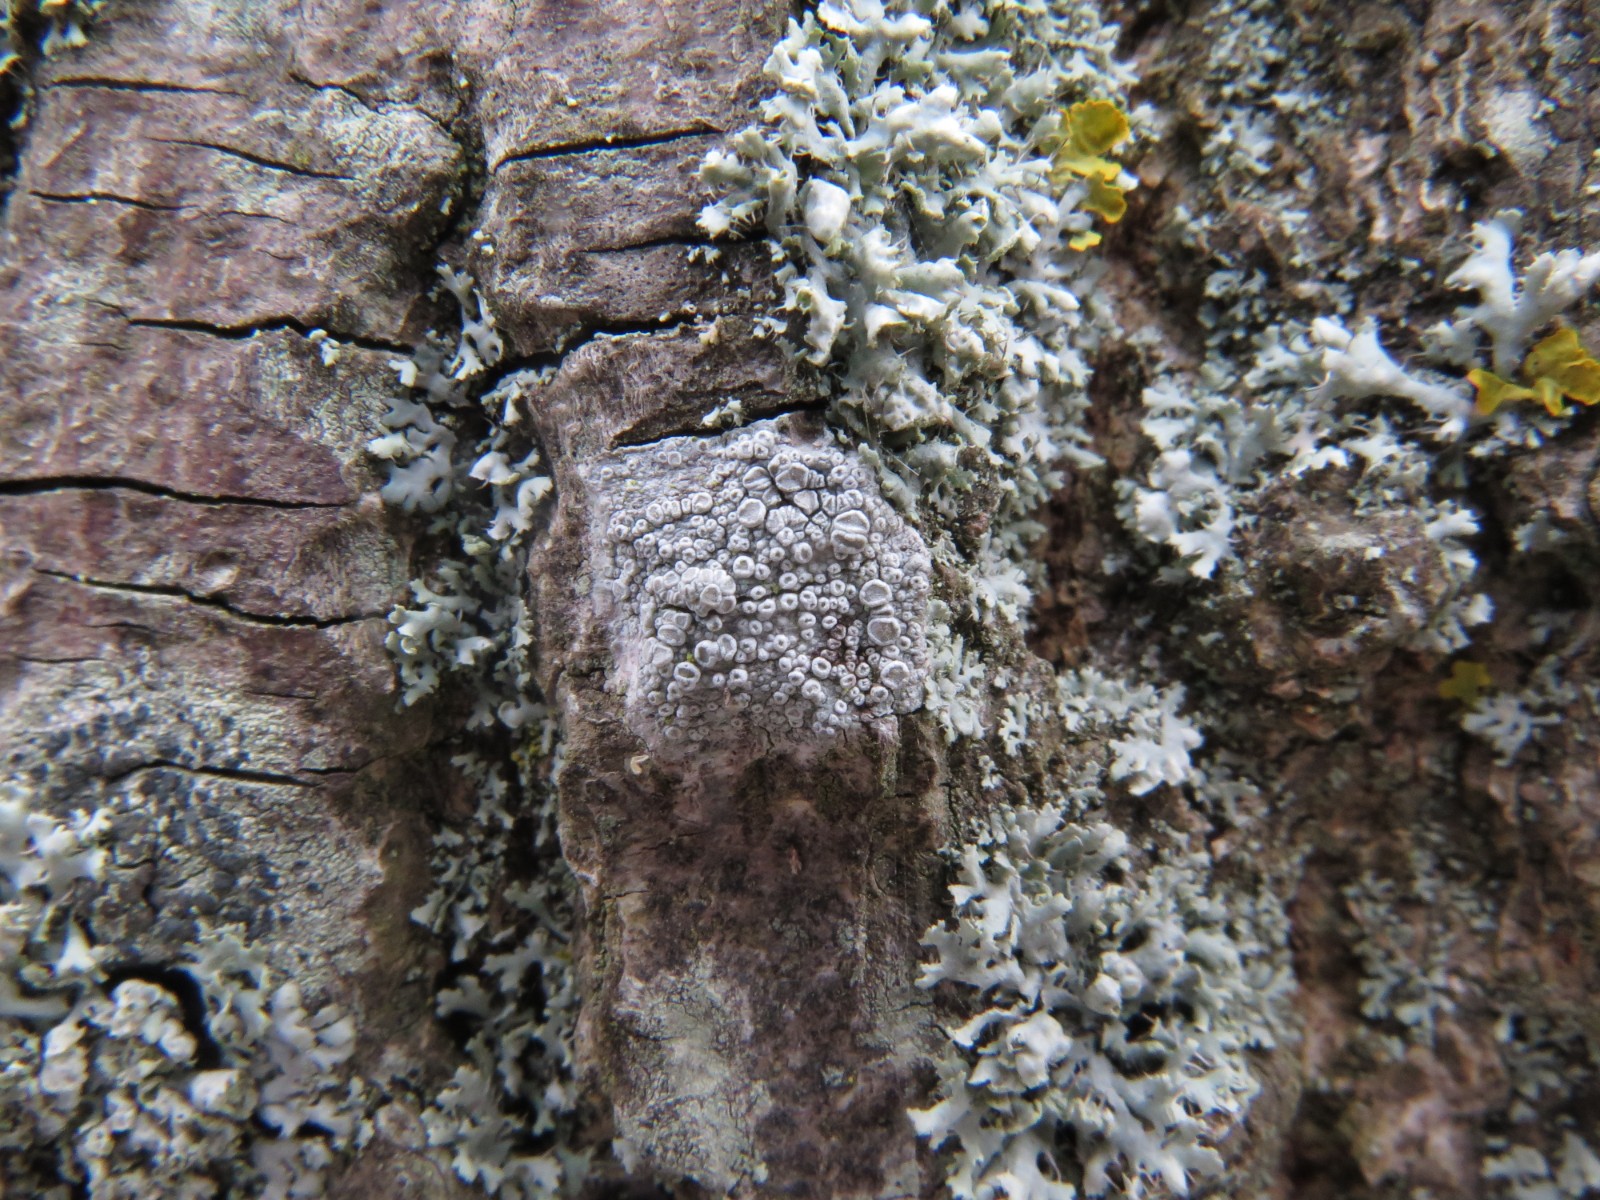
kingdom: Fungi
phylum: Ascomycota
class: Lecanoromycetes
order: Lecanorales
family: Lecanoraceae
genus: Glaucomaria
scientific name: Glaucomaria carpinea
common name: hviddugget kantskivelav
